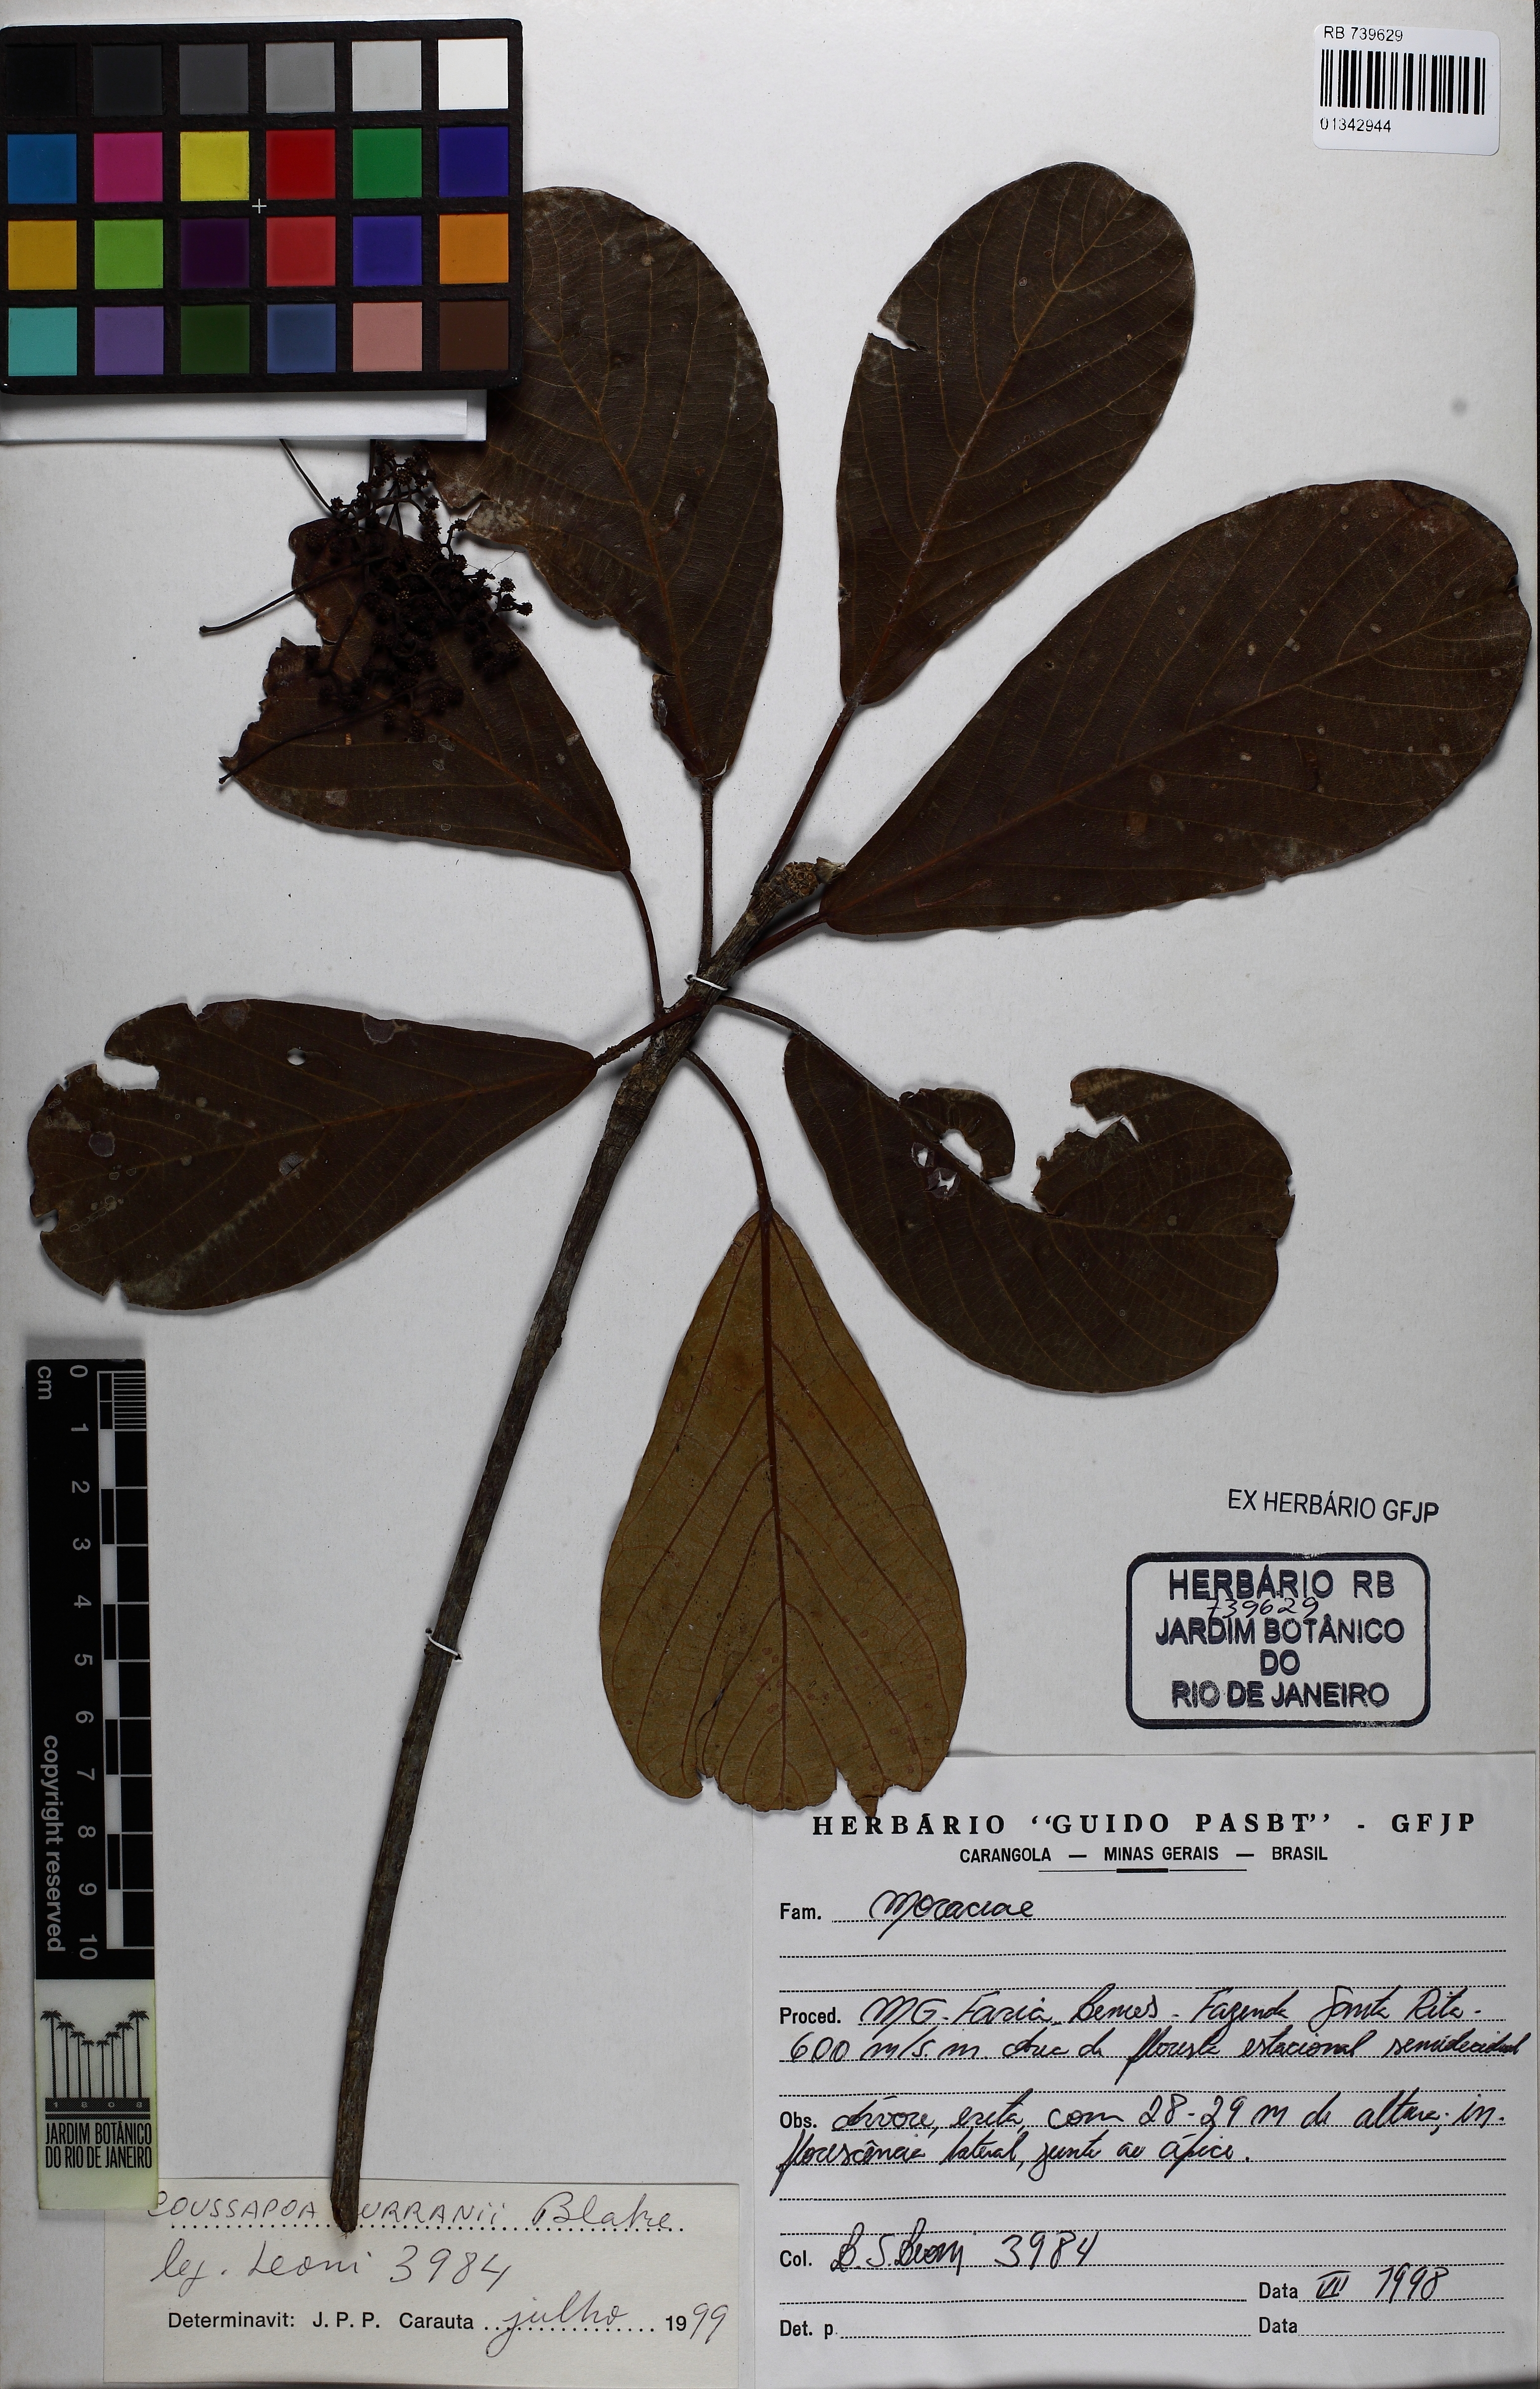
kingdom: Plantae
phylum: Tracheophyta
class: Magnoliopsida
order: Rosales
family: Urticaceae
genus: Coussapoa
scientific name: Coussapoa curranii
